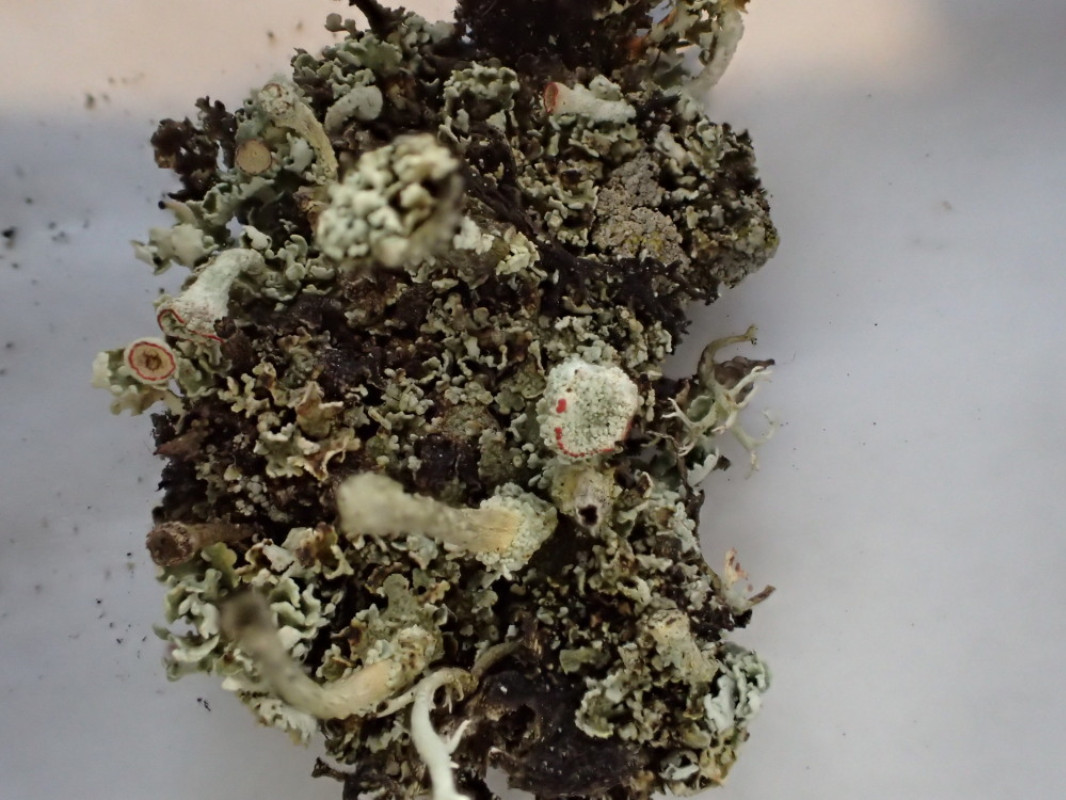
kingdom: Fungi
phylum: Ascomycota
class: Lecanoromycetes
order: Lecanorales
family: Cladoniaceae
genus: Cladonia
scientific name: Cladonia diversa
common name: rød bægerlav
